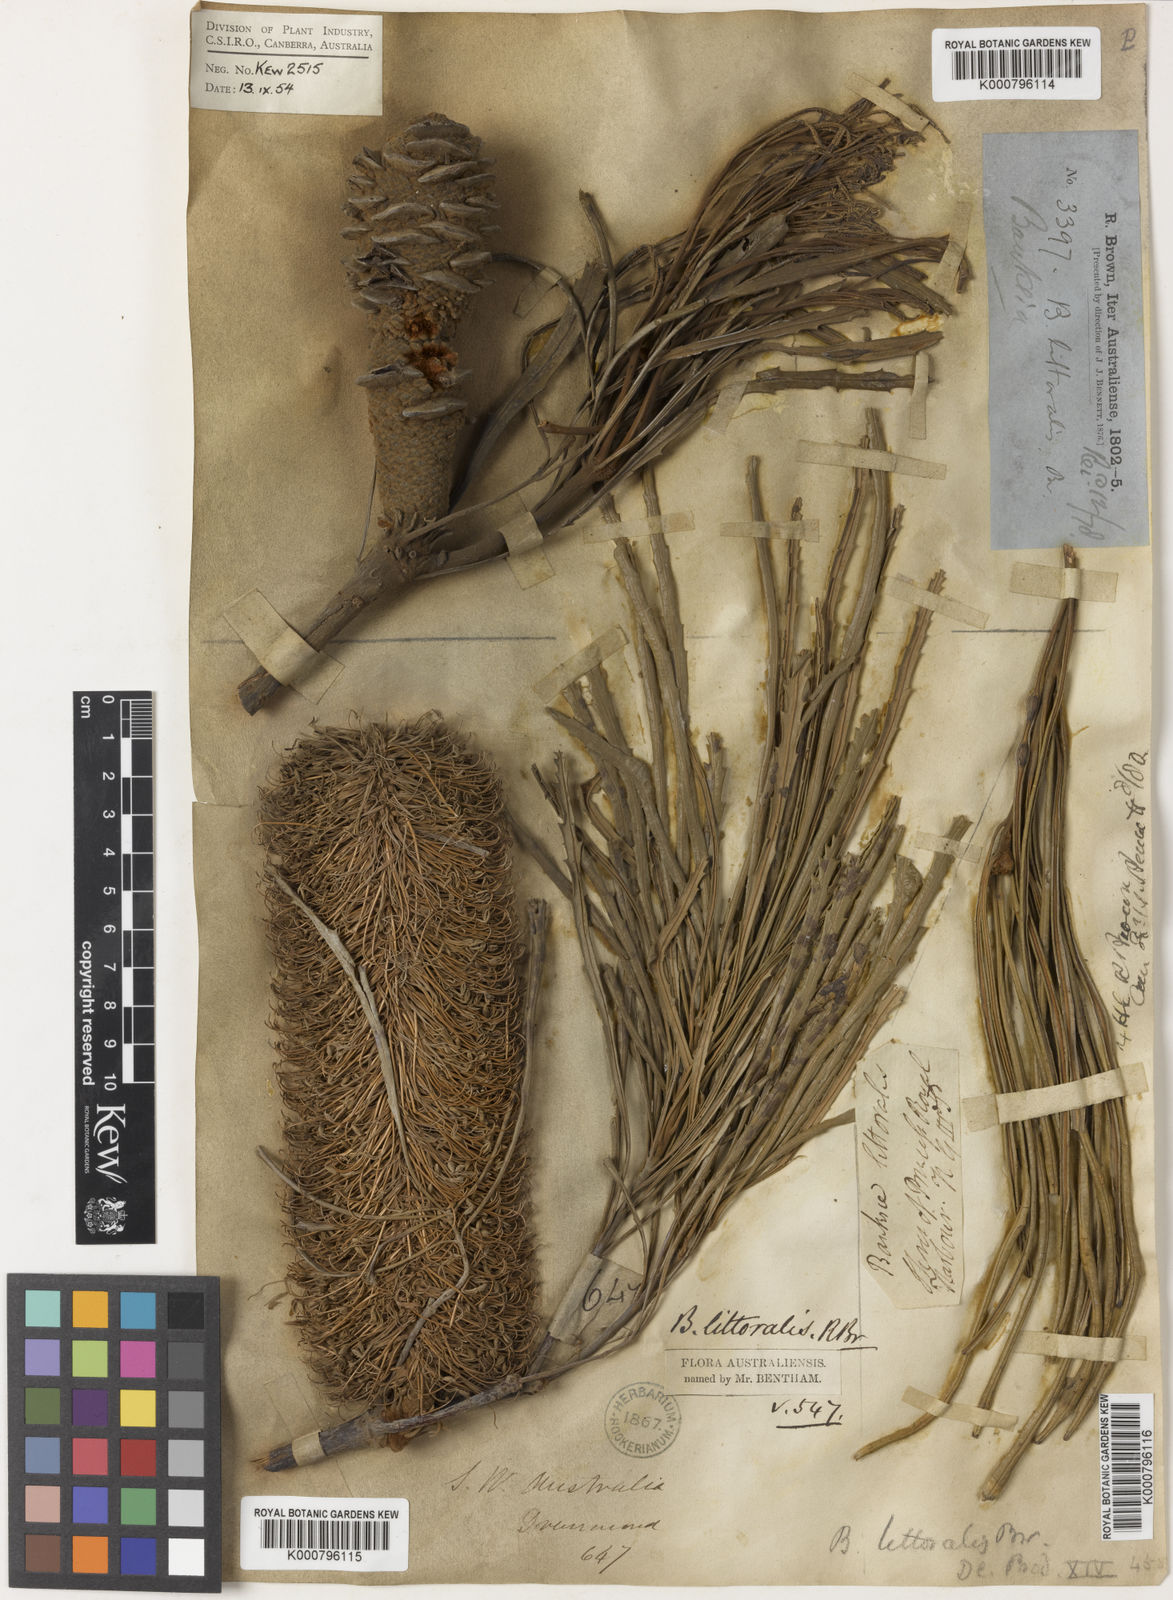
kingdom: Plantae
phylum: Tracheophyta
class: Magnoliopsida
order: Proteales
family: Proteaceae
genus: Banksia
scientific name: Banksia littoralis
